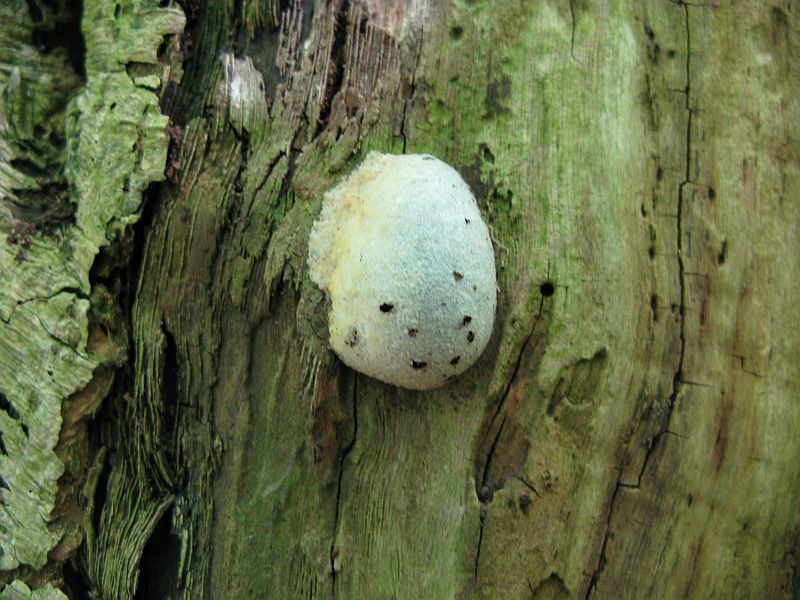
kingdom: Protozoa
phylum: Mycetozoa
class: Myxomycetes
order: Cribrariales
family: Tubiferaceae
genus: Reticularia
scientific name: Reticularia lycoperdon
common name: skinnende støvpude
